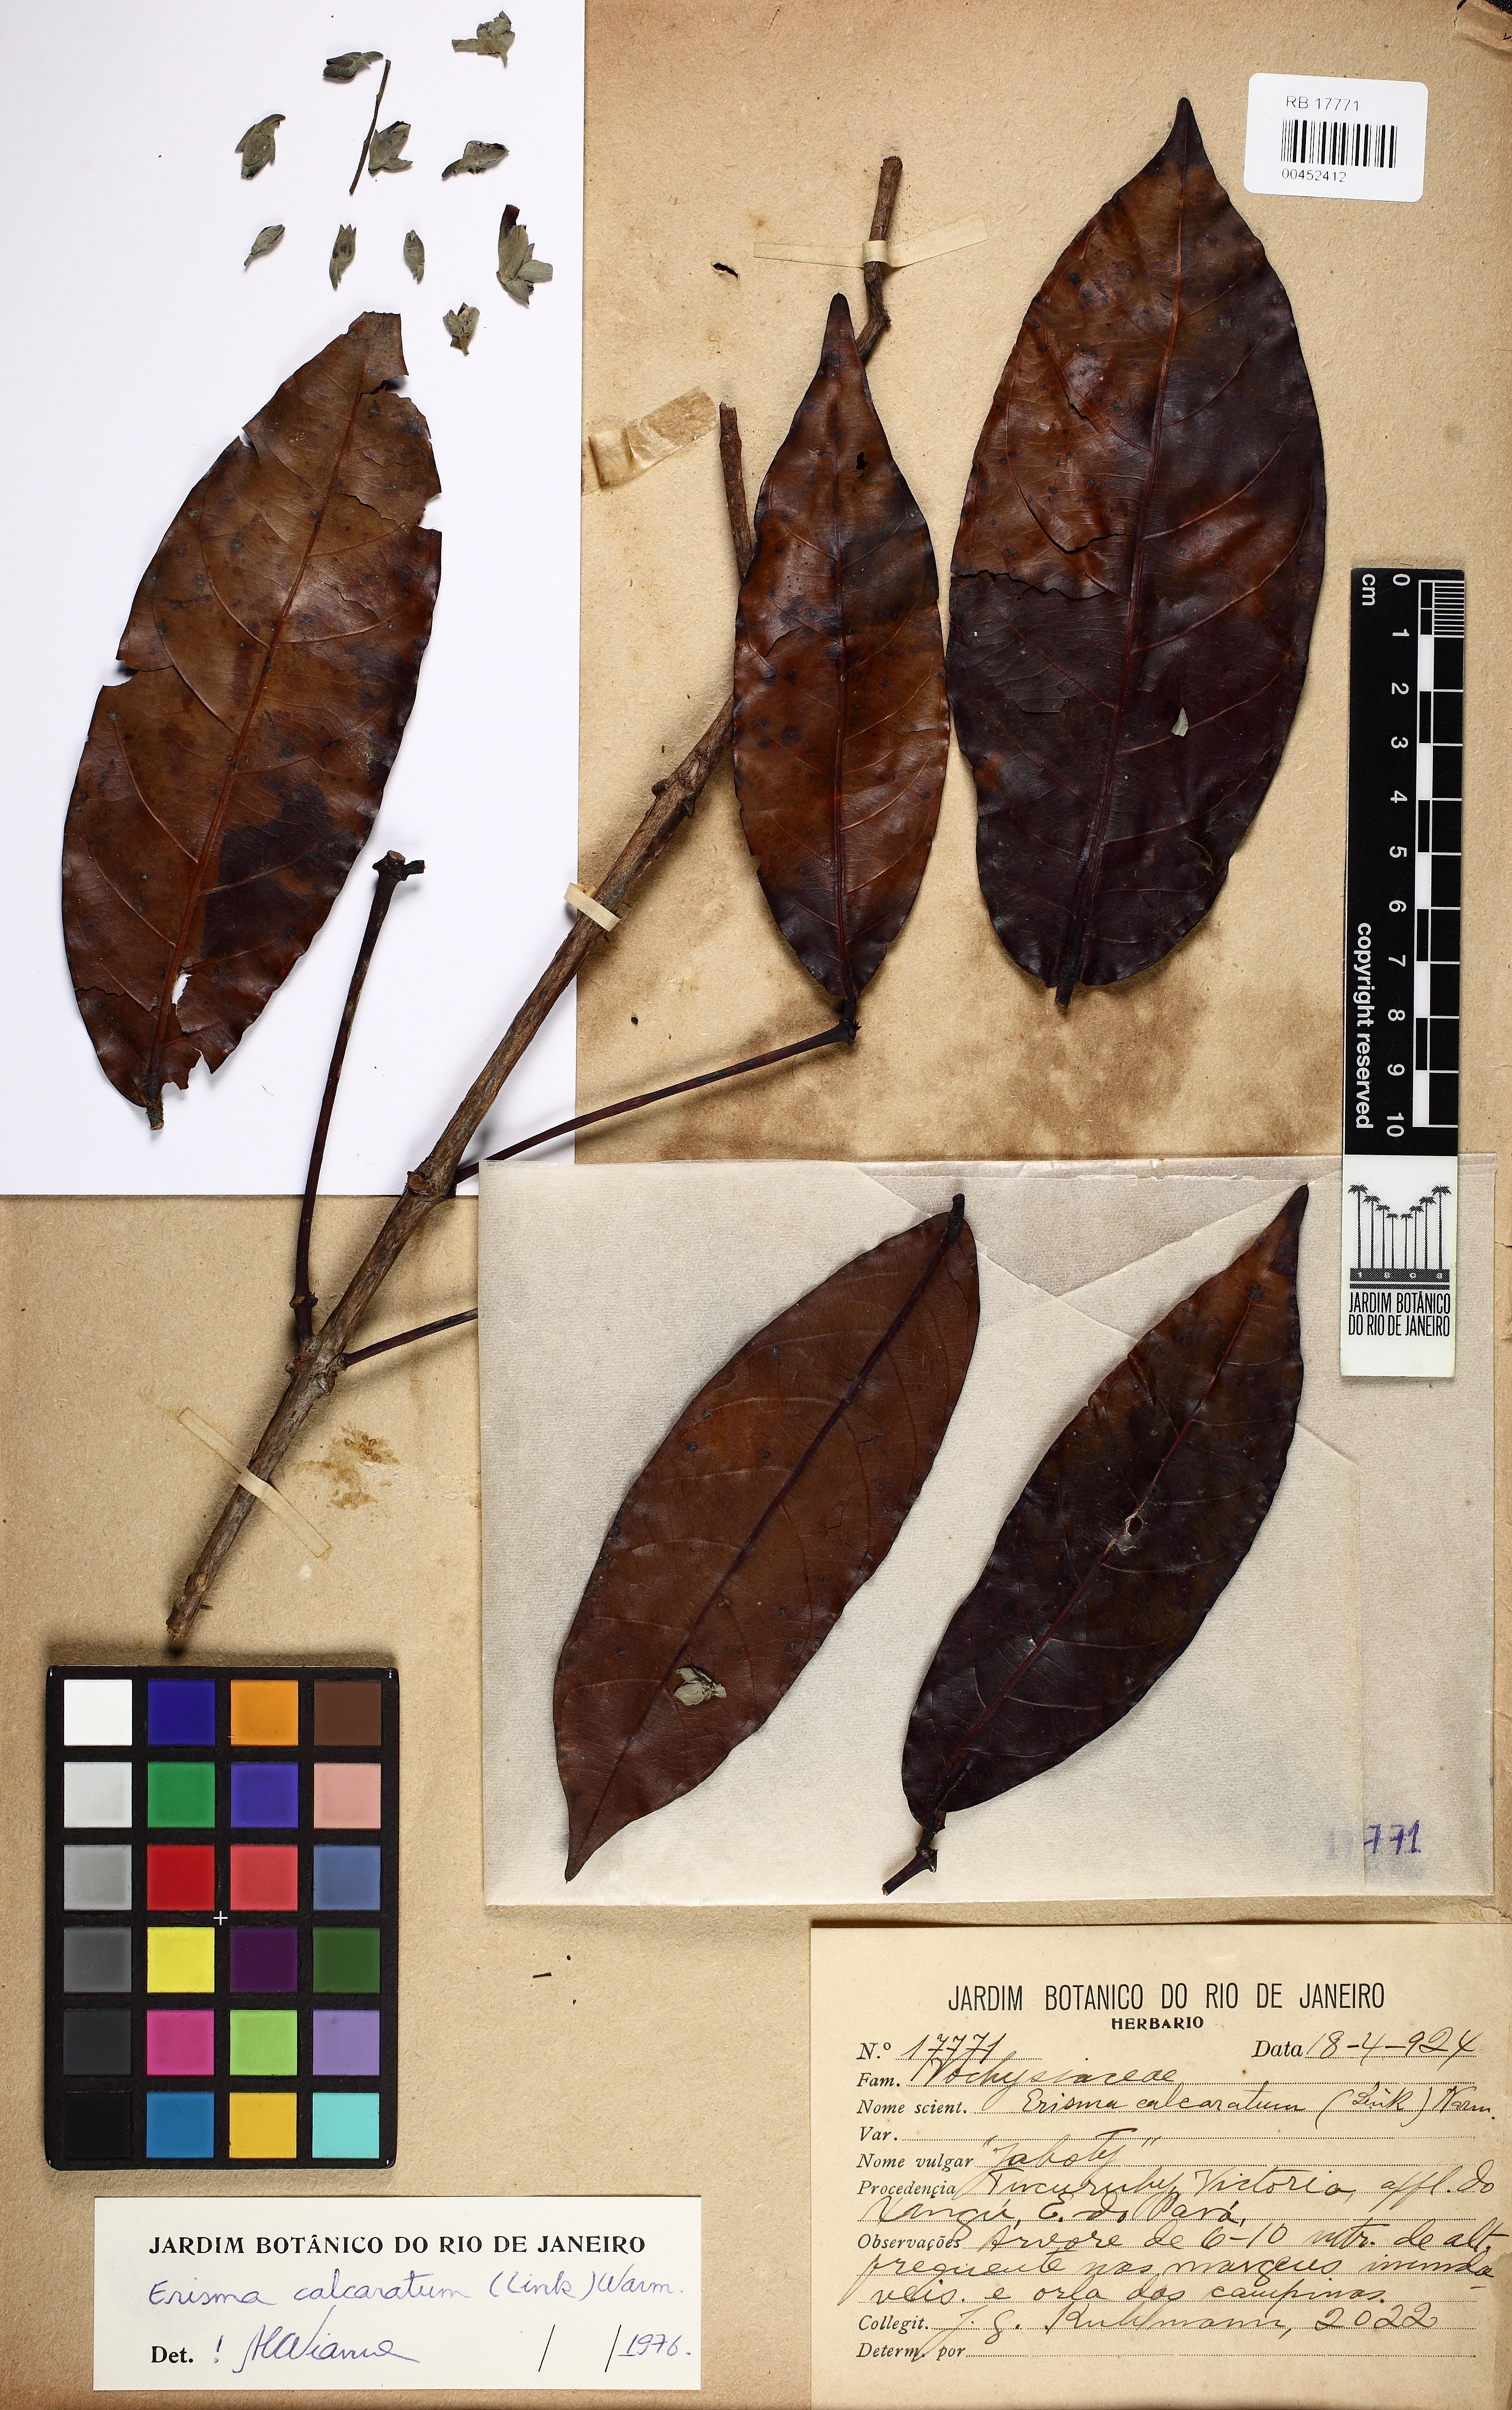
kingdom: Plantae
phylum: Tracheophyta
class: Magnoliopsida
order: Myrtales
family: Vochysiaceae
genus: Erisma
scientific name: Erisma calcaratum
